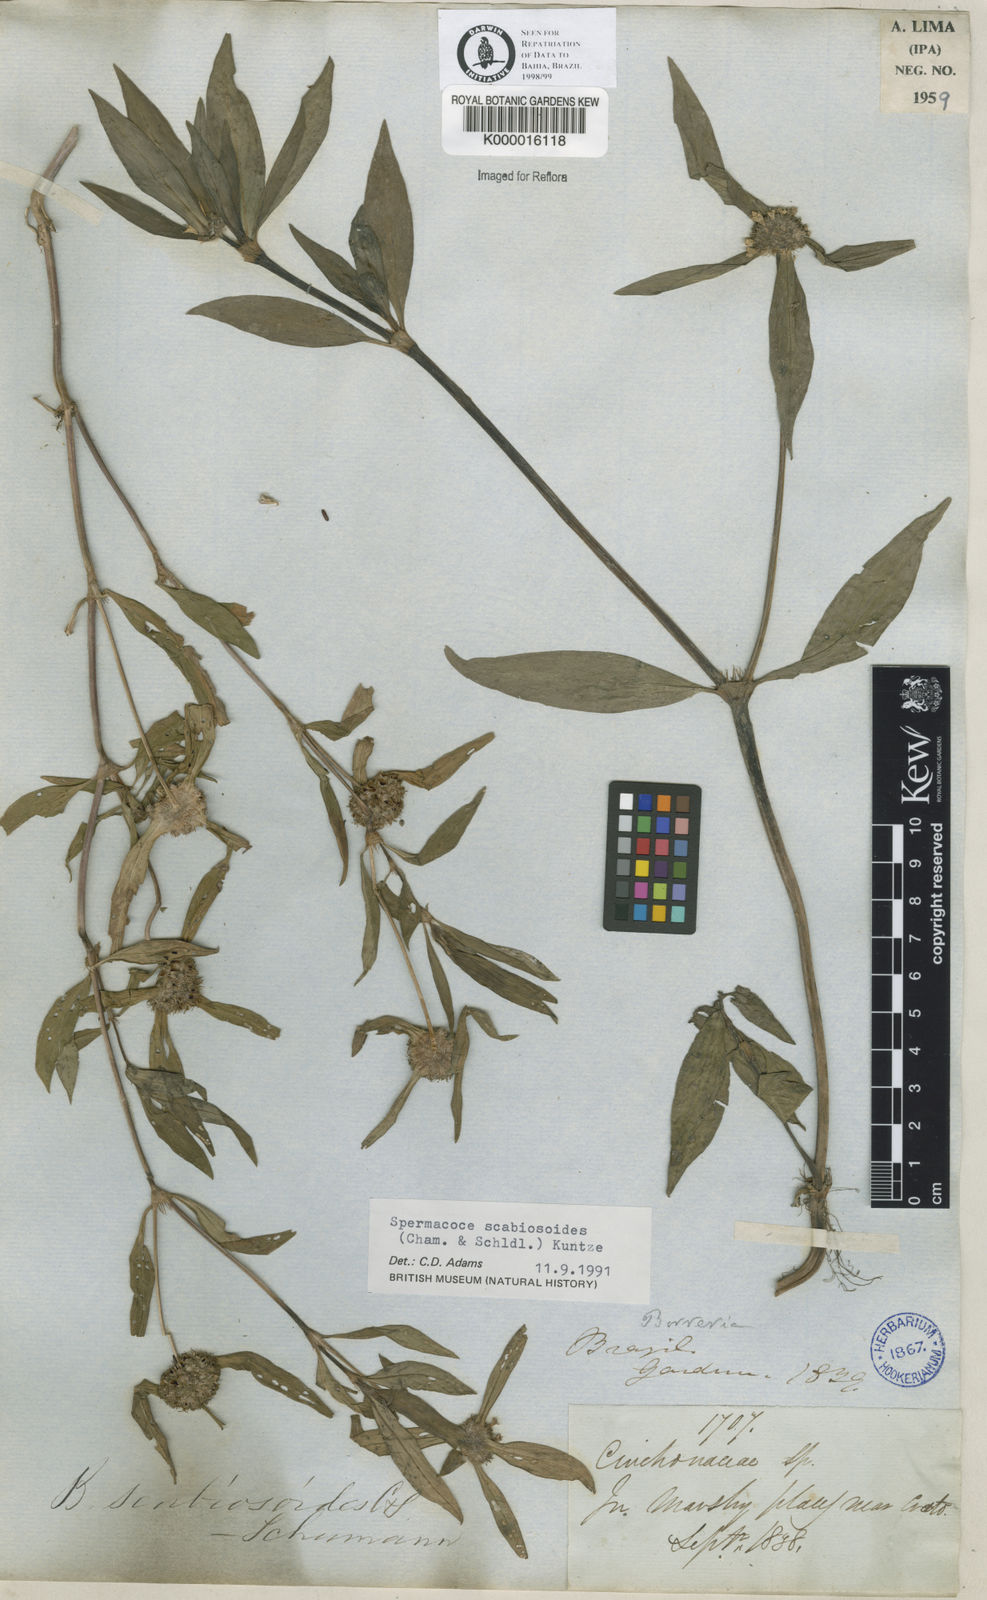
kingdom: Plantae
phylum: Tracheophyta
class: Magnoliopsida
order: Gentianales
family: Rubiaceae
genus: Spermacoce
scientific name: Spermacoce scabiosoides
